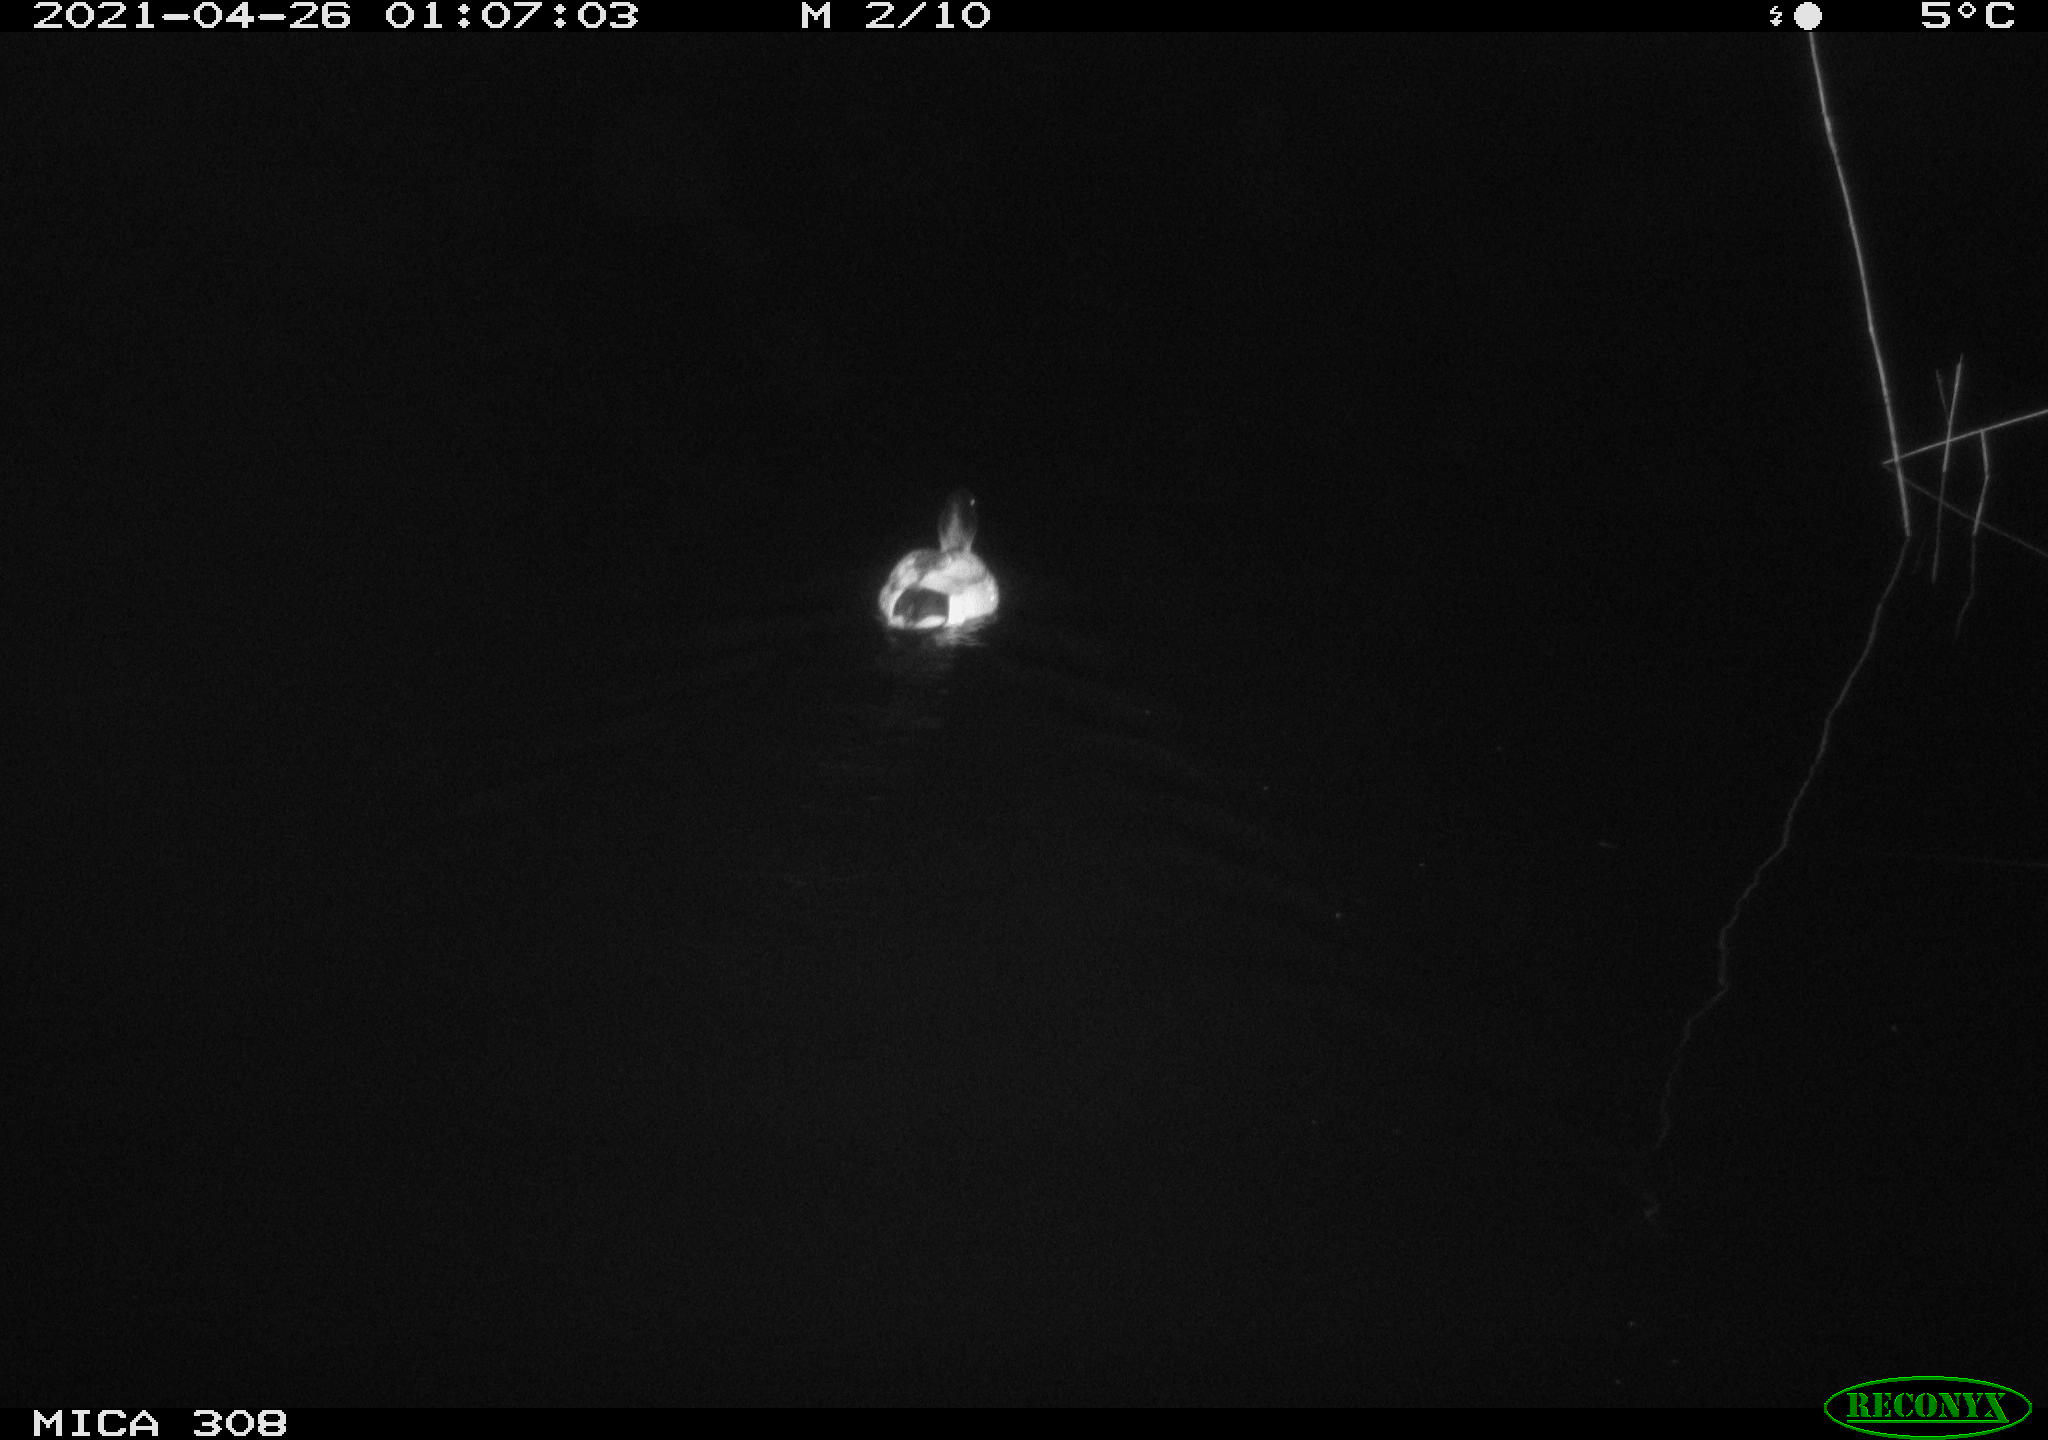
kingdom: Animalia
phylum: Chordata
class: Aves
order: Anseriformes
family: Anatidae
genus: Anas
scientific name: Anas platyrhynchos
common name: Mallard
